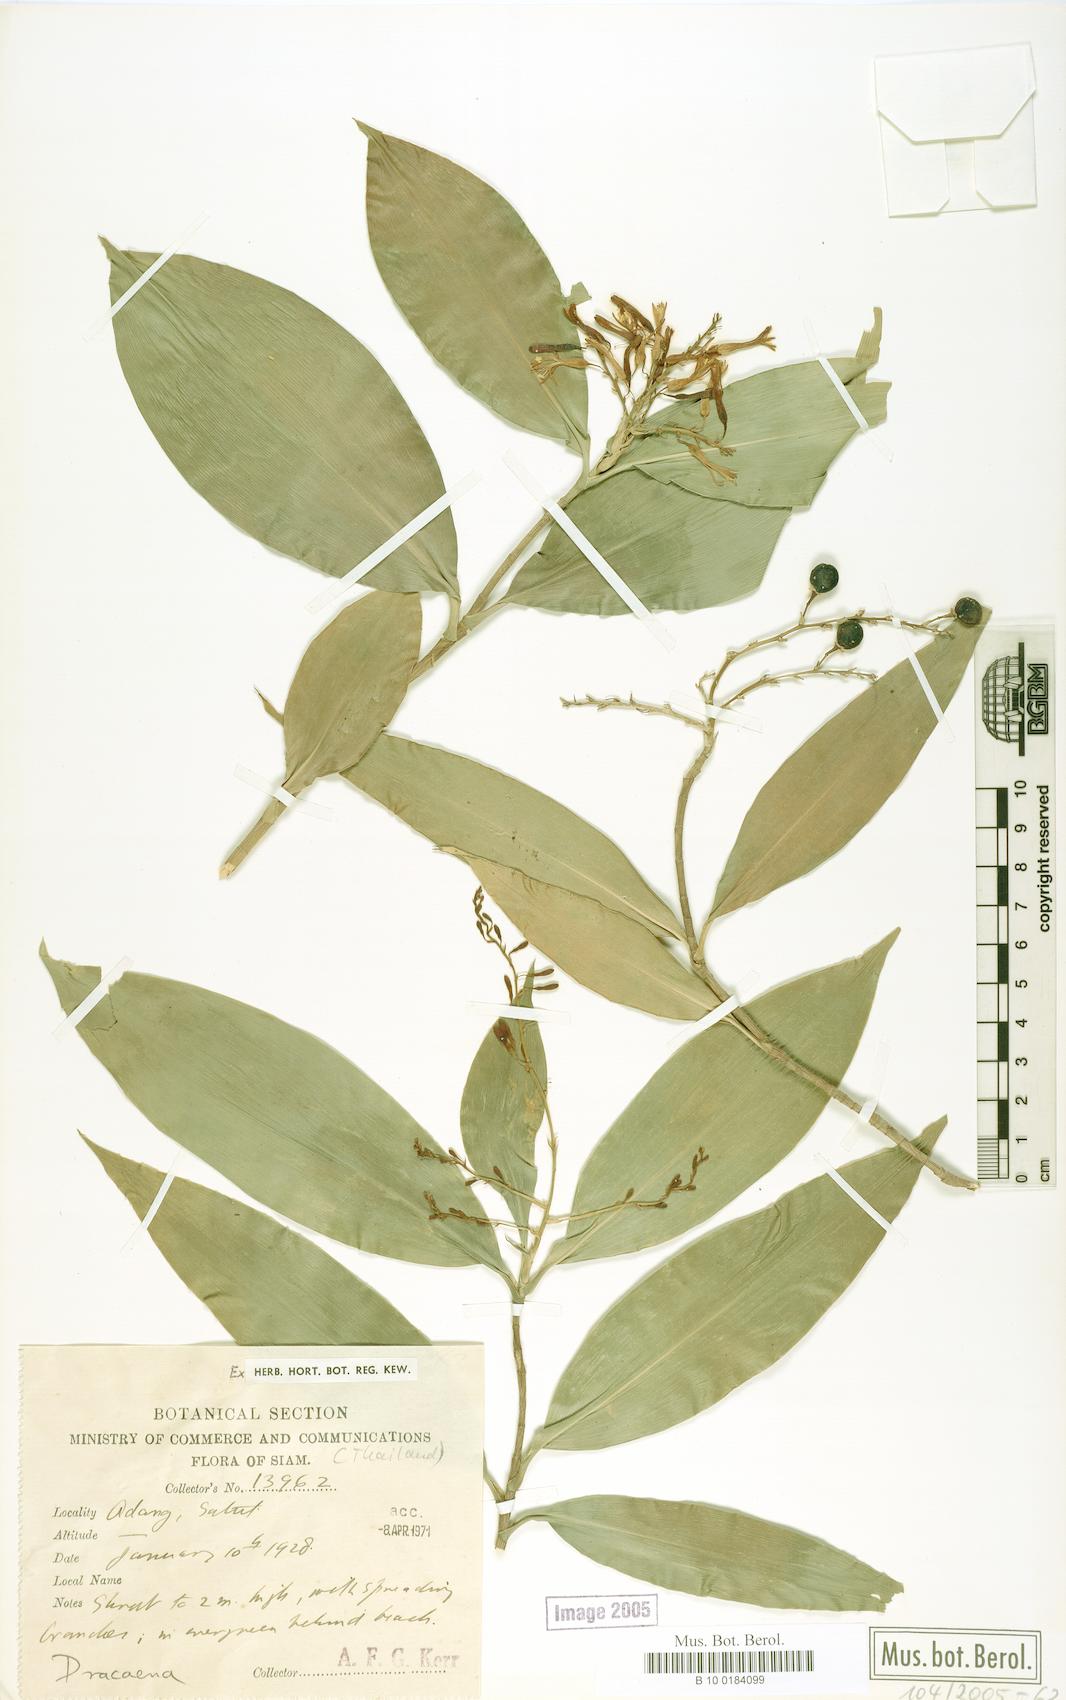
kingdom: Plantae
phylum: Tracheophyta
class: Liliopsida
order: Asparagales
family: Asparagaceae
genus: Dracaena
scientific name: Dracaena
